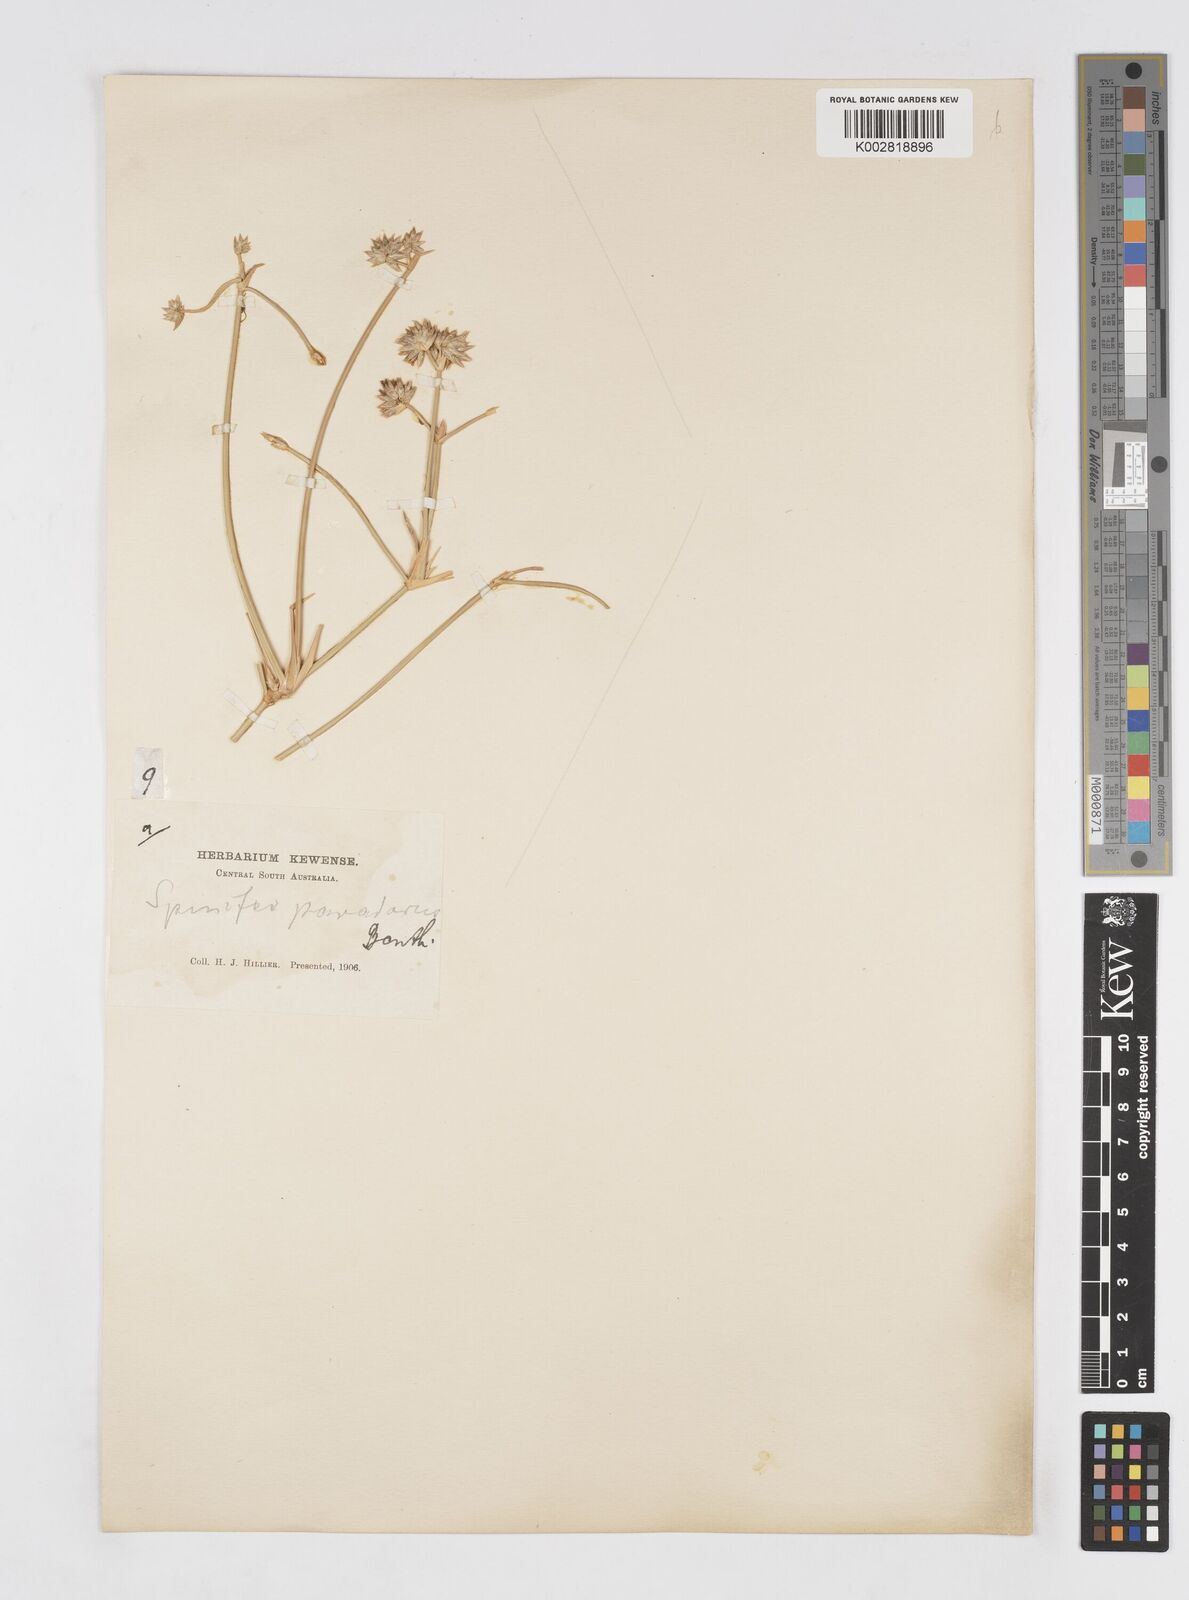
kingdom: Plantae
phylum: Tracheophyta
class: Liliopsida
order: Poales
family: Poaceae
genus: Zygochloa
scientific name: Zygochloa paradoxa
